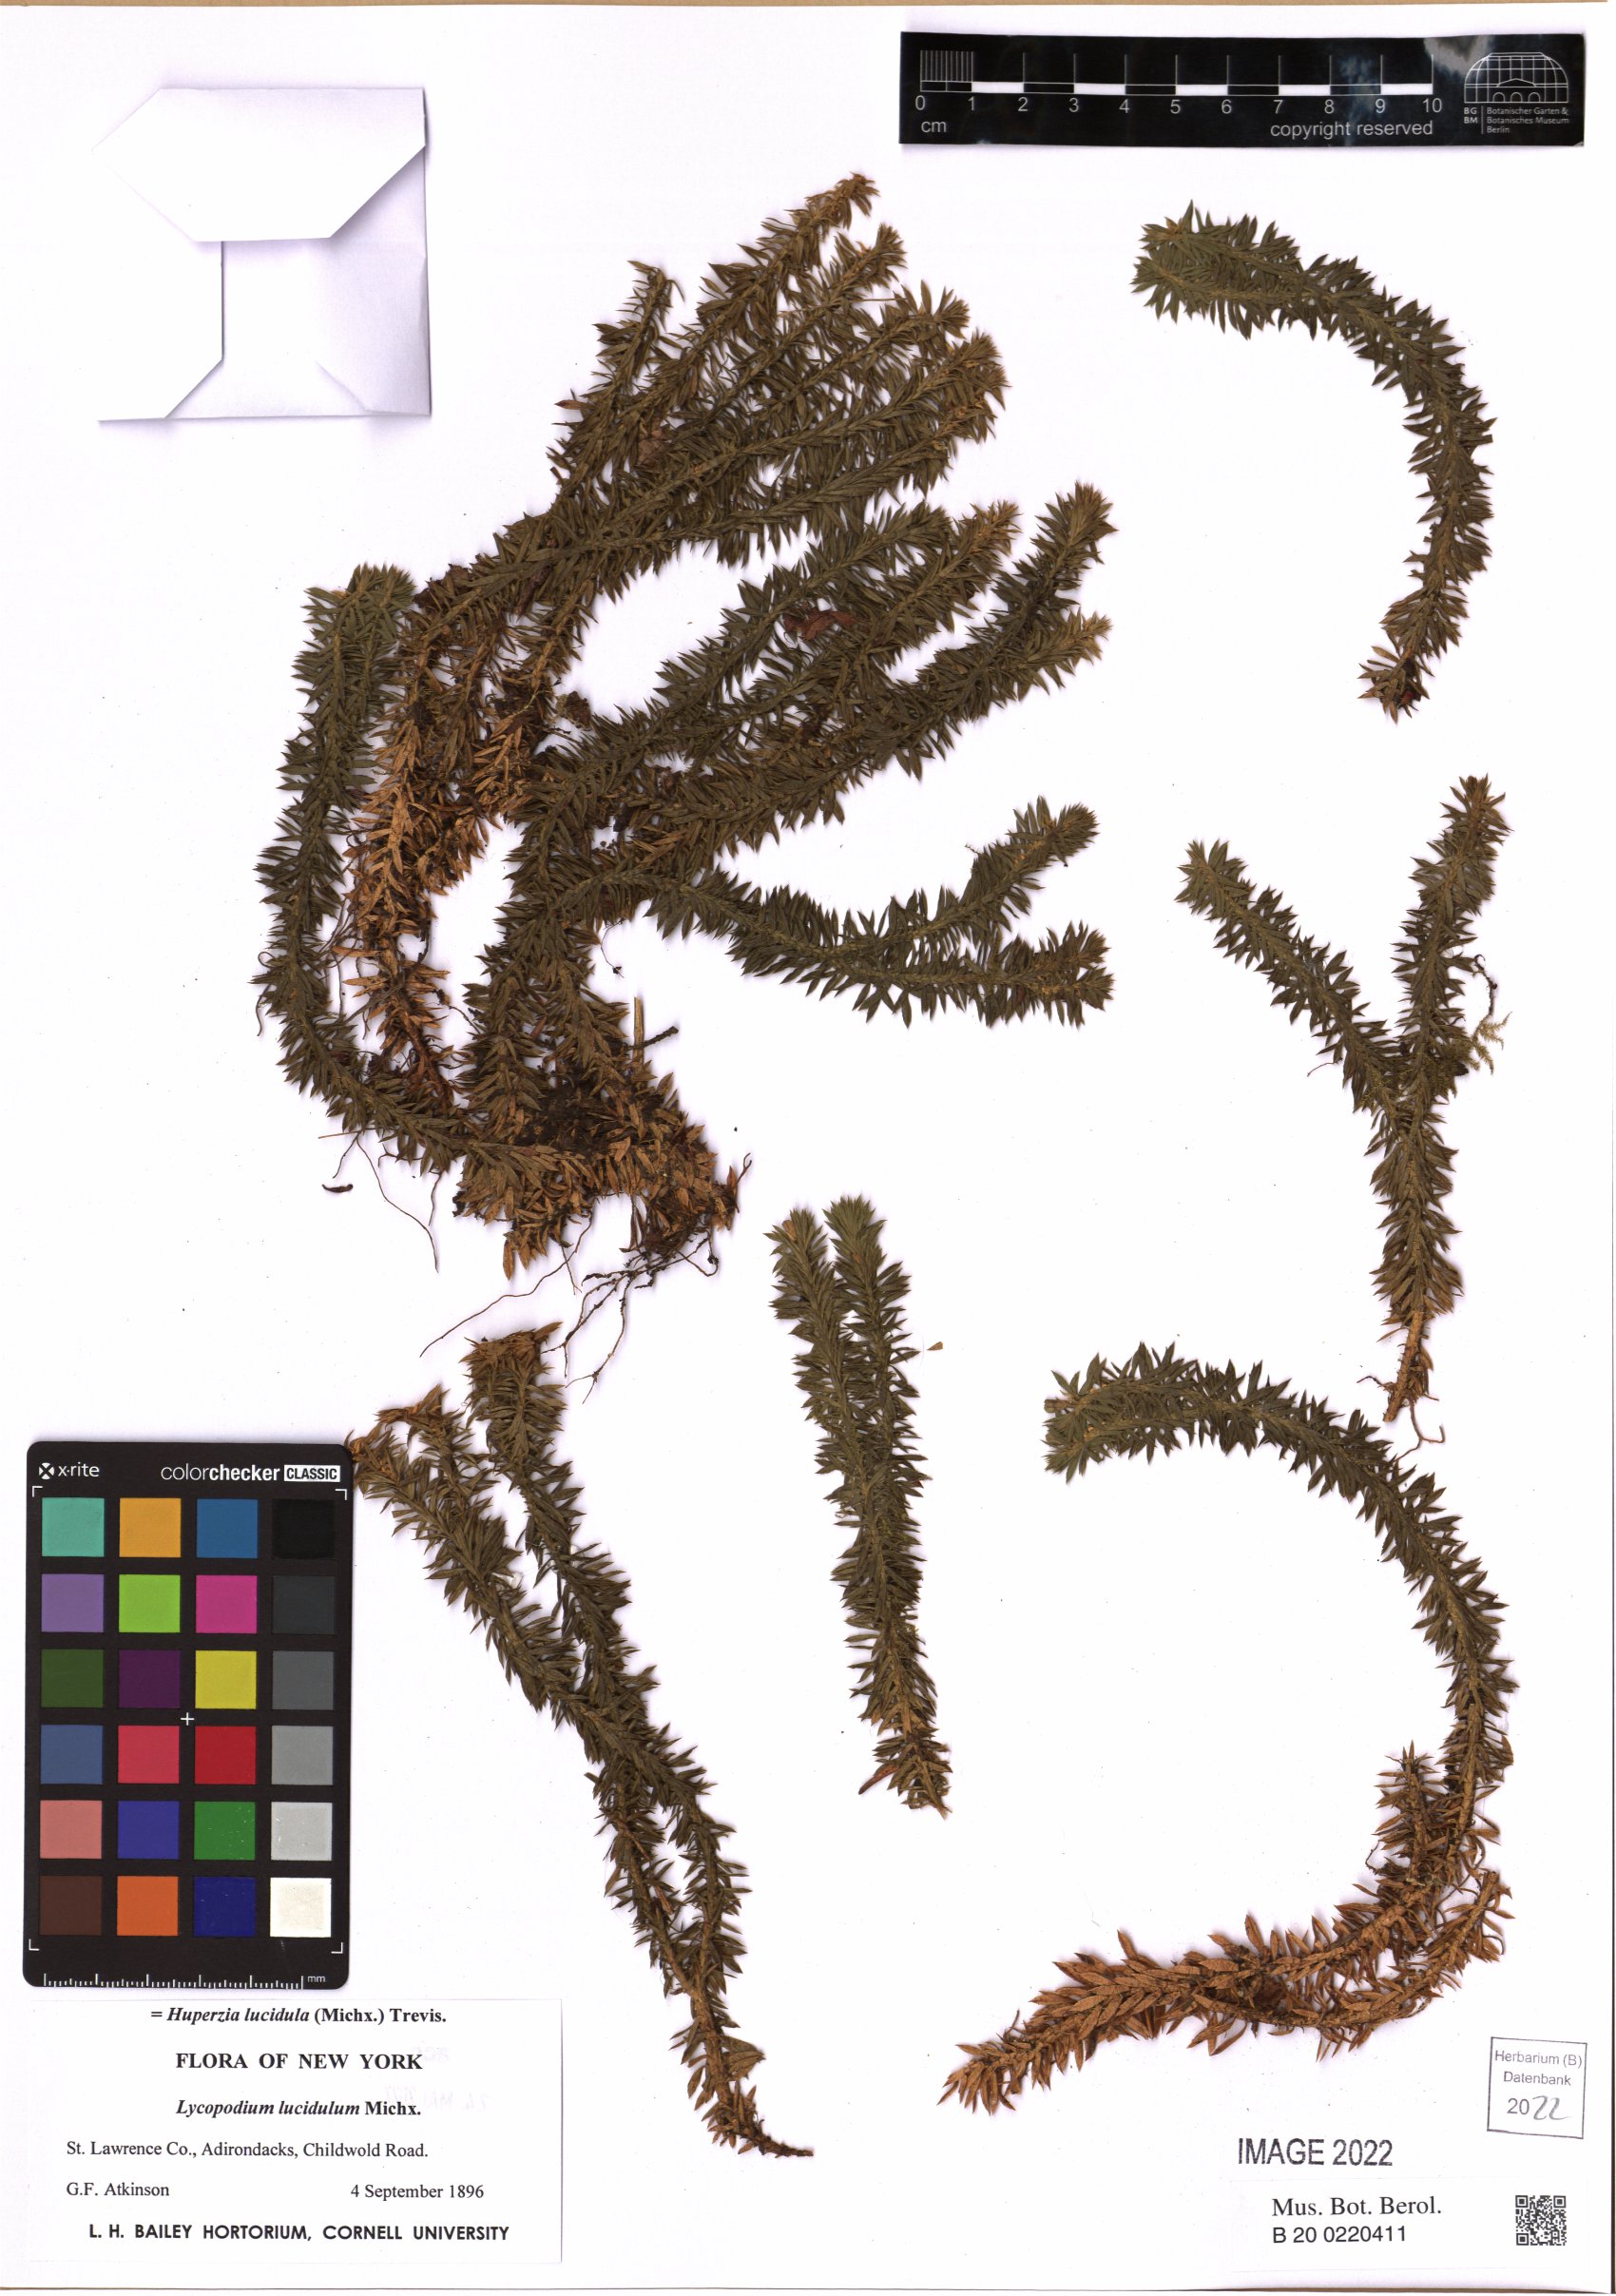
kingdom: Plantae
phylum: Tracheophyta
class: Lycopodiopsida
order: Lycopodiales
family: Lycopodiaceae
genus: Huperzia
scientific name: Huperzia lucidula
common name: Shining clubmoss
